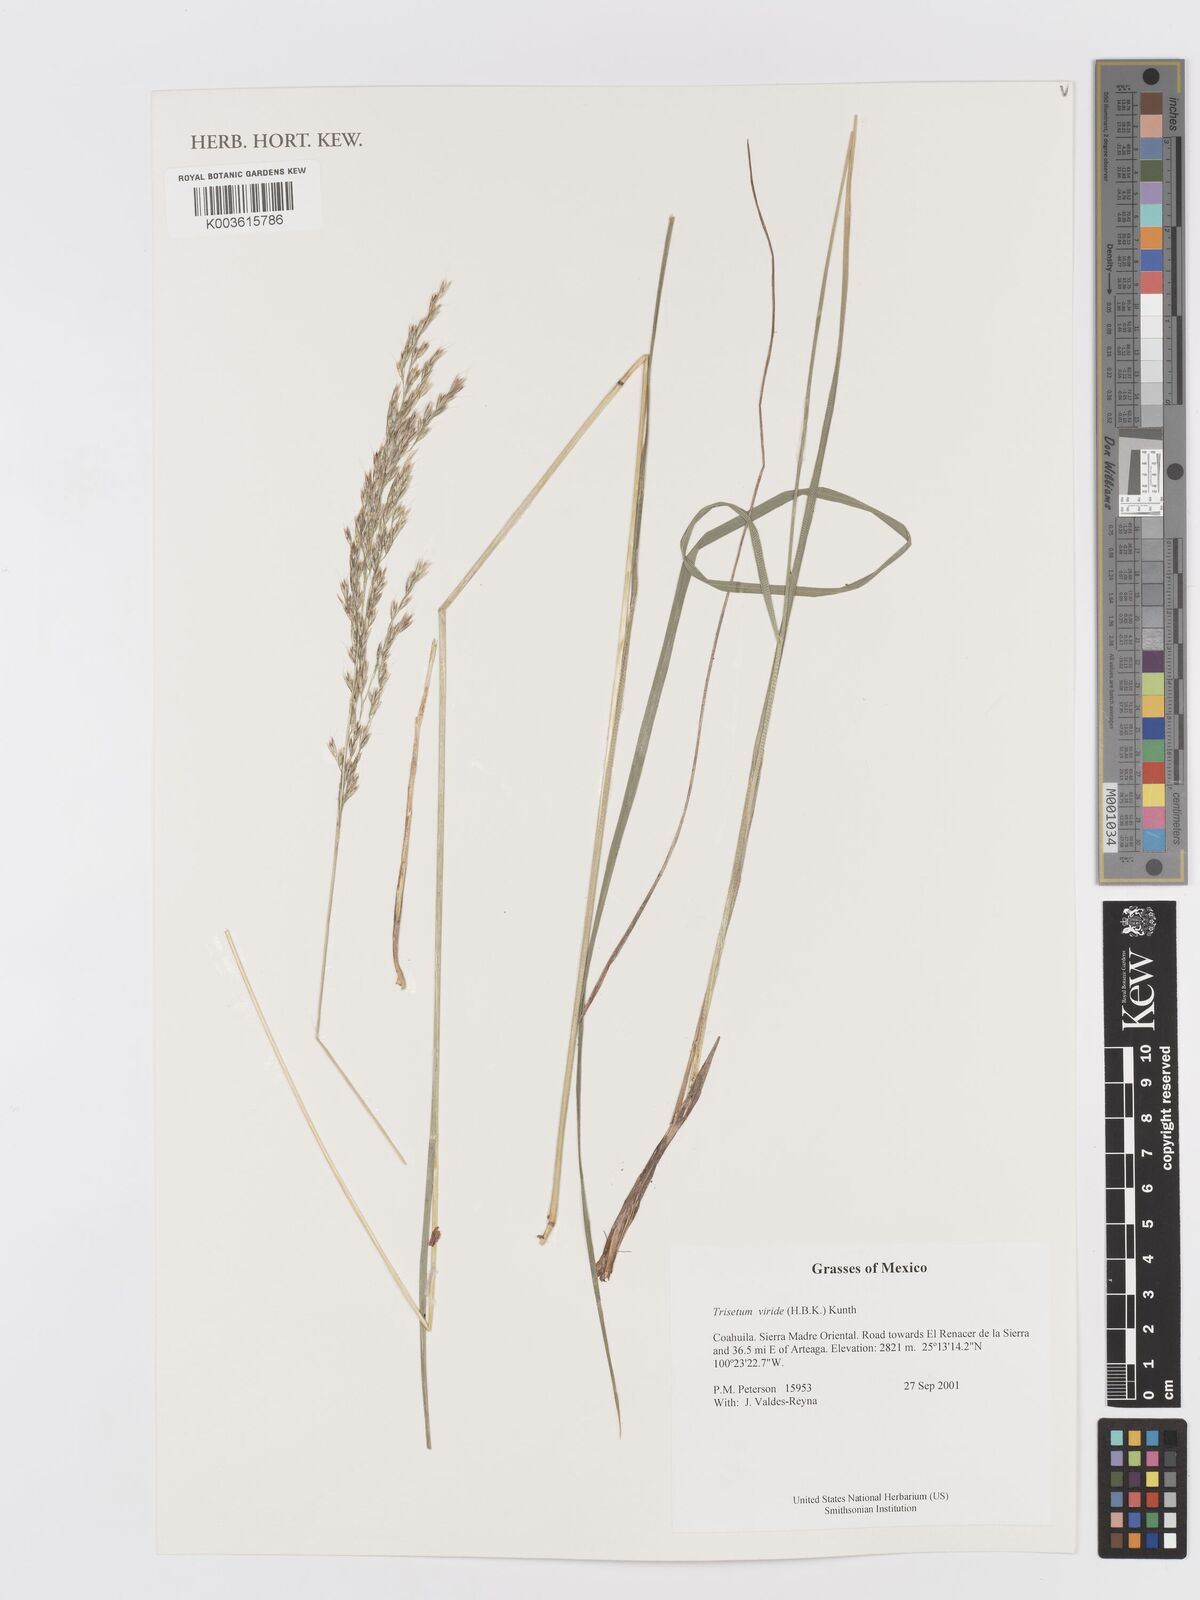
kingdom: Plantae
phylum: Tracheophyta
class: Liliopsida
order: Poales
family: Poaceae
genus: Peyritschia
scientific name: Peyritschia viridis
